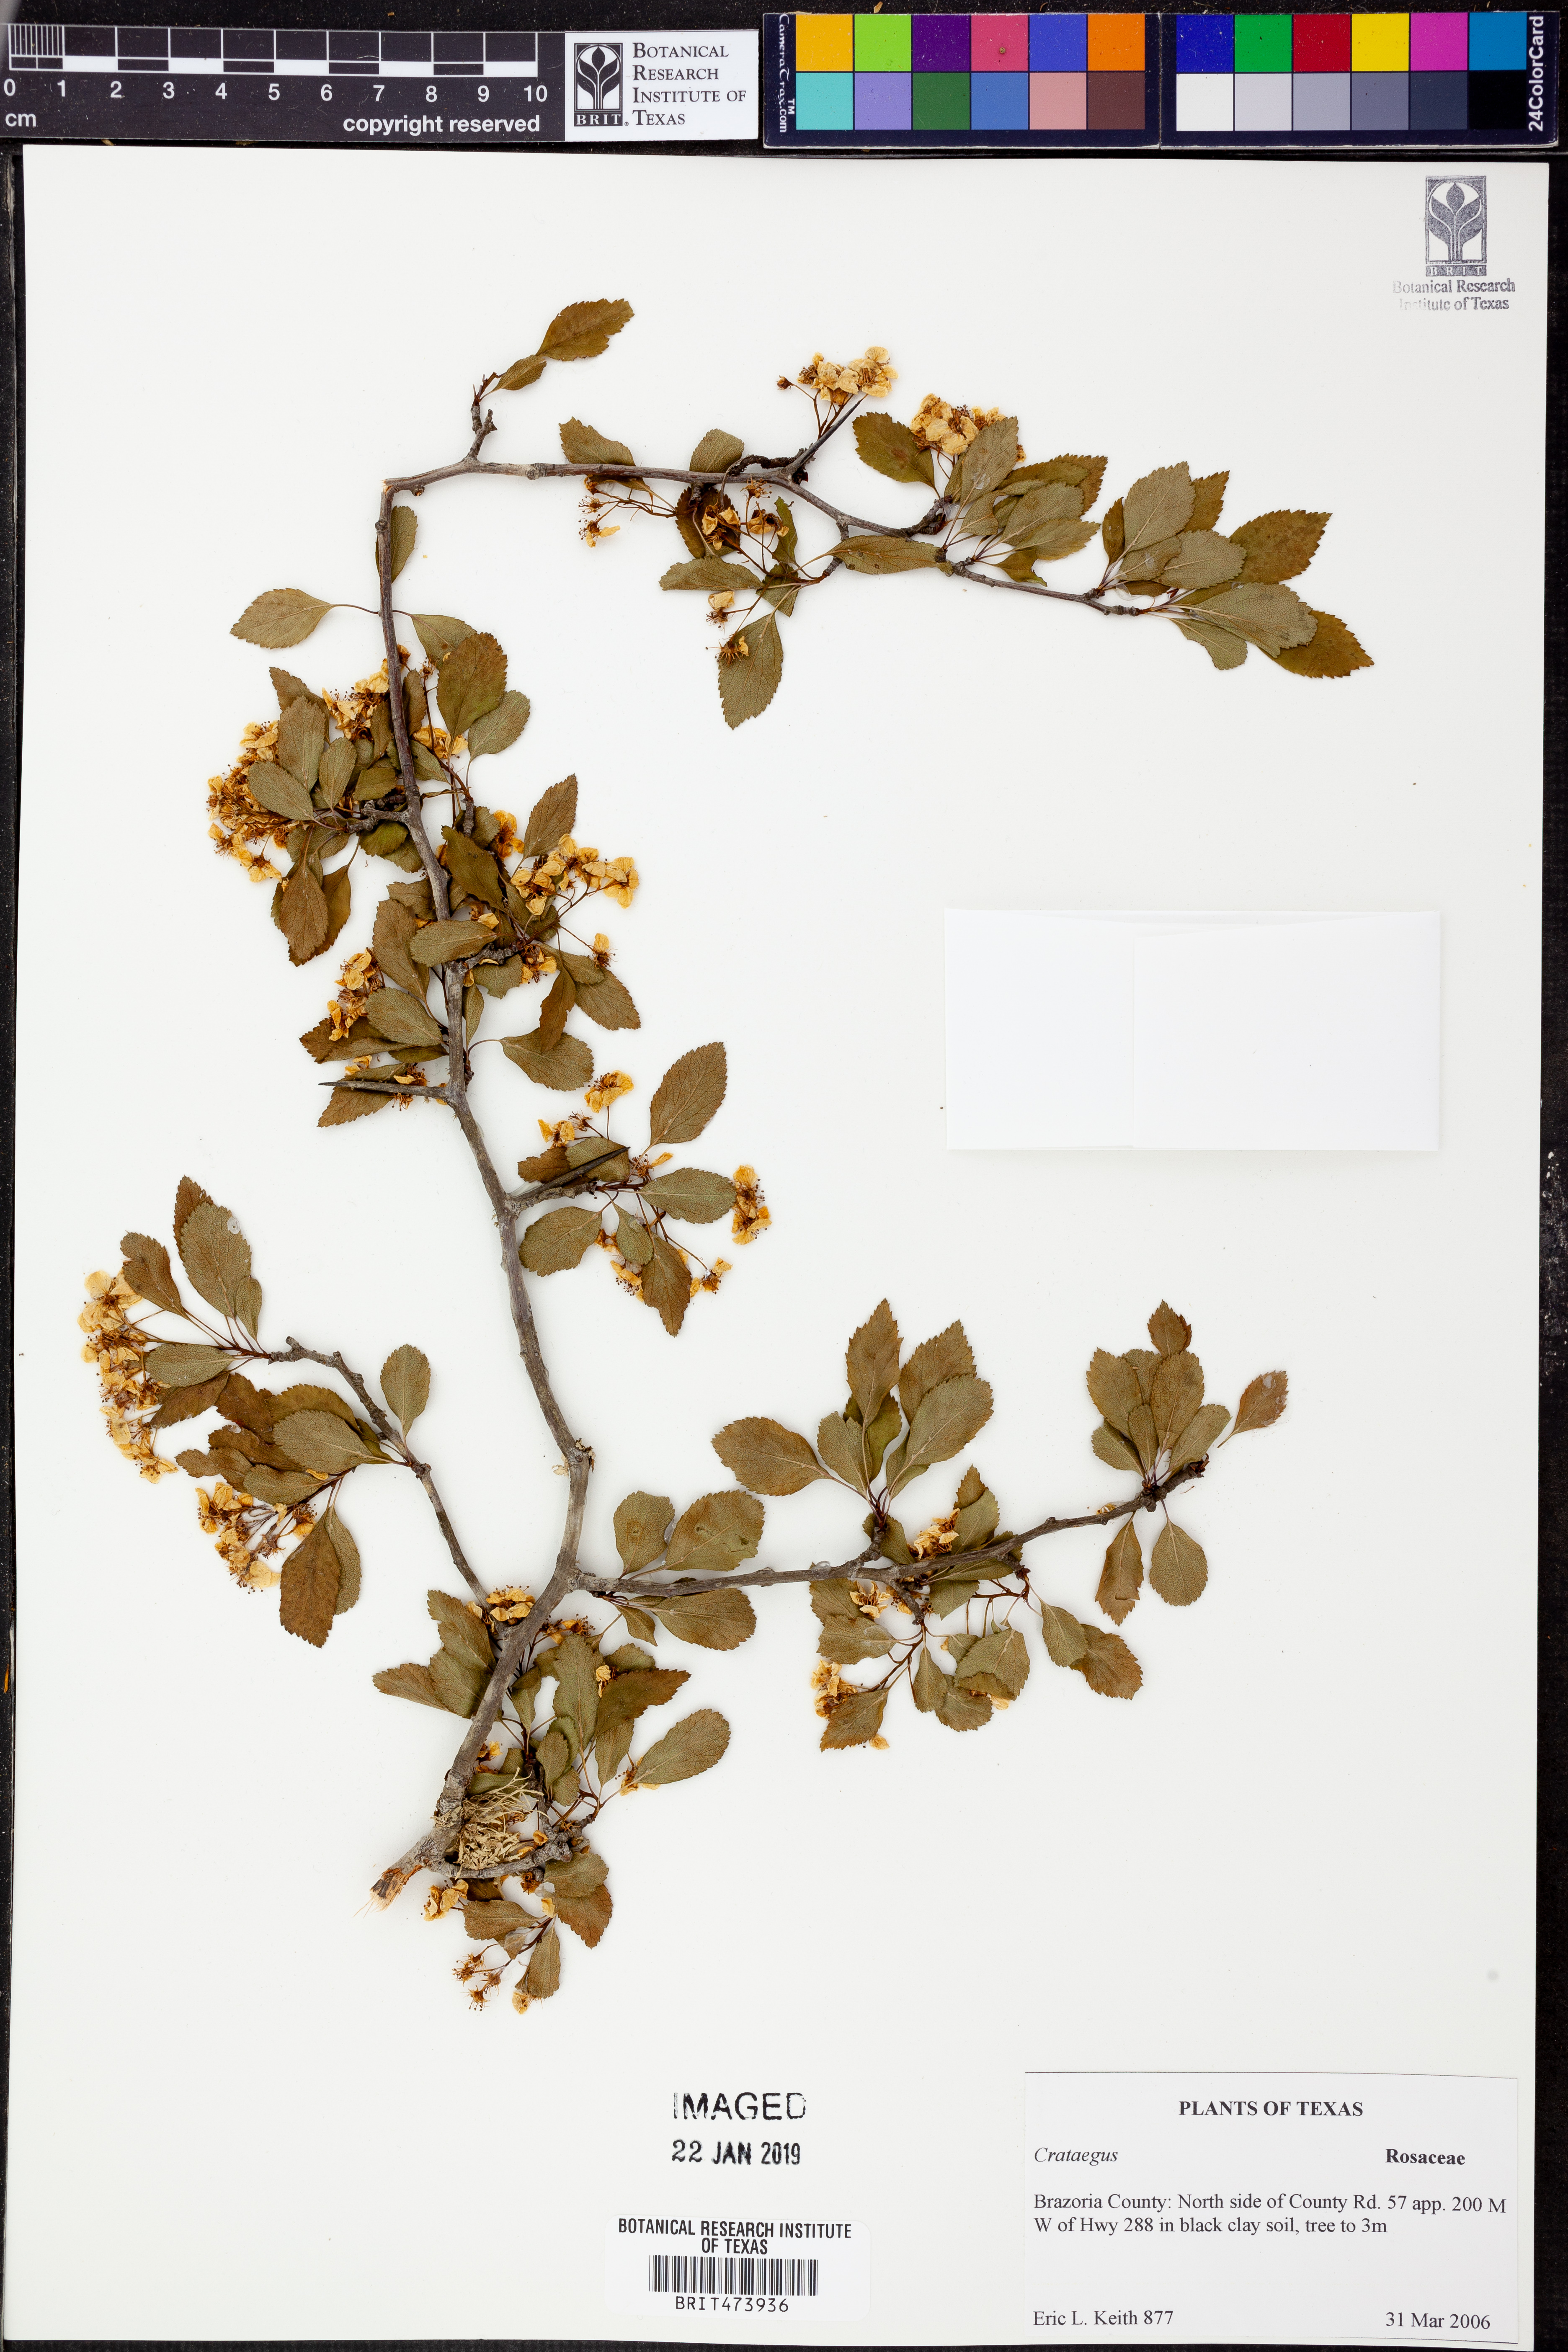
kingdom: Plantae
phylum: Tracheophyta
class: Magnoliopsida
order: Rosales
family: Rosaceae
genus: Crataegus
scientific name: Crataegus
